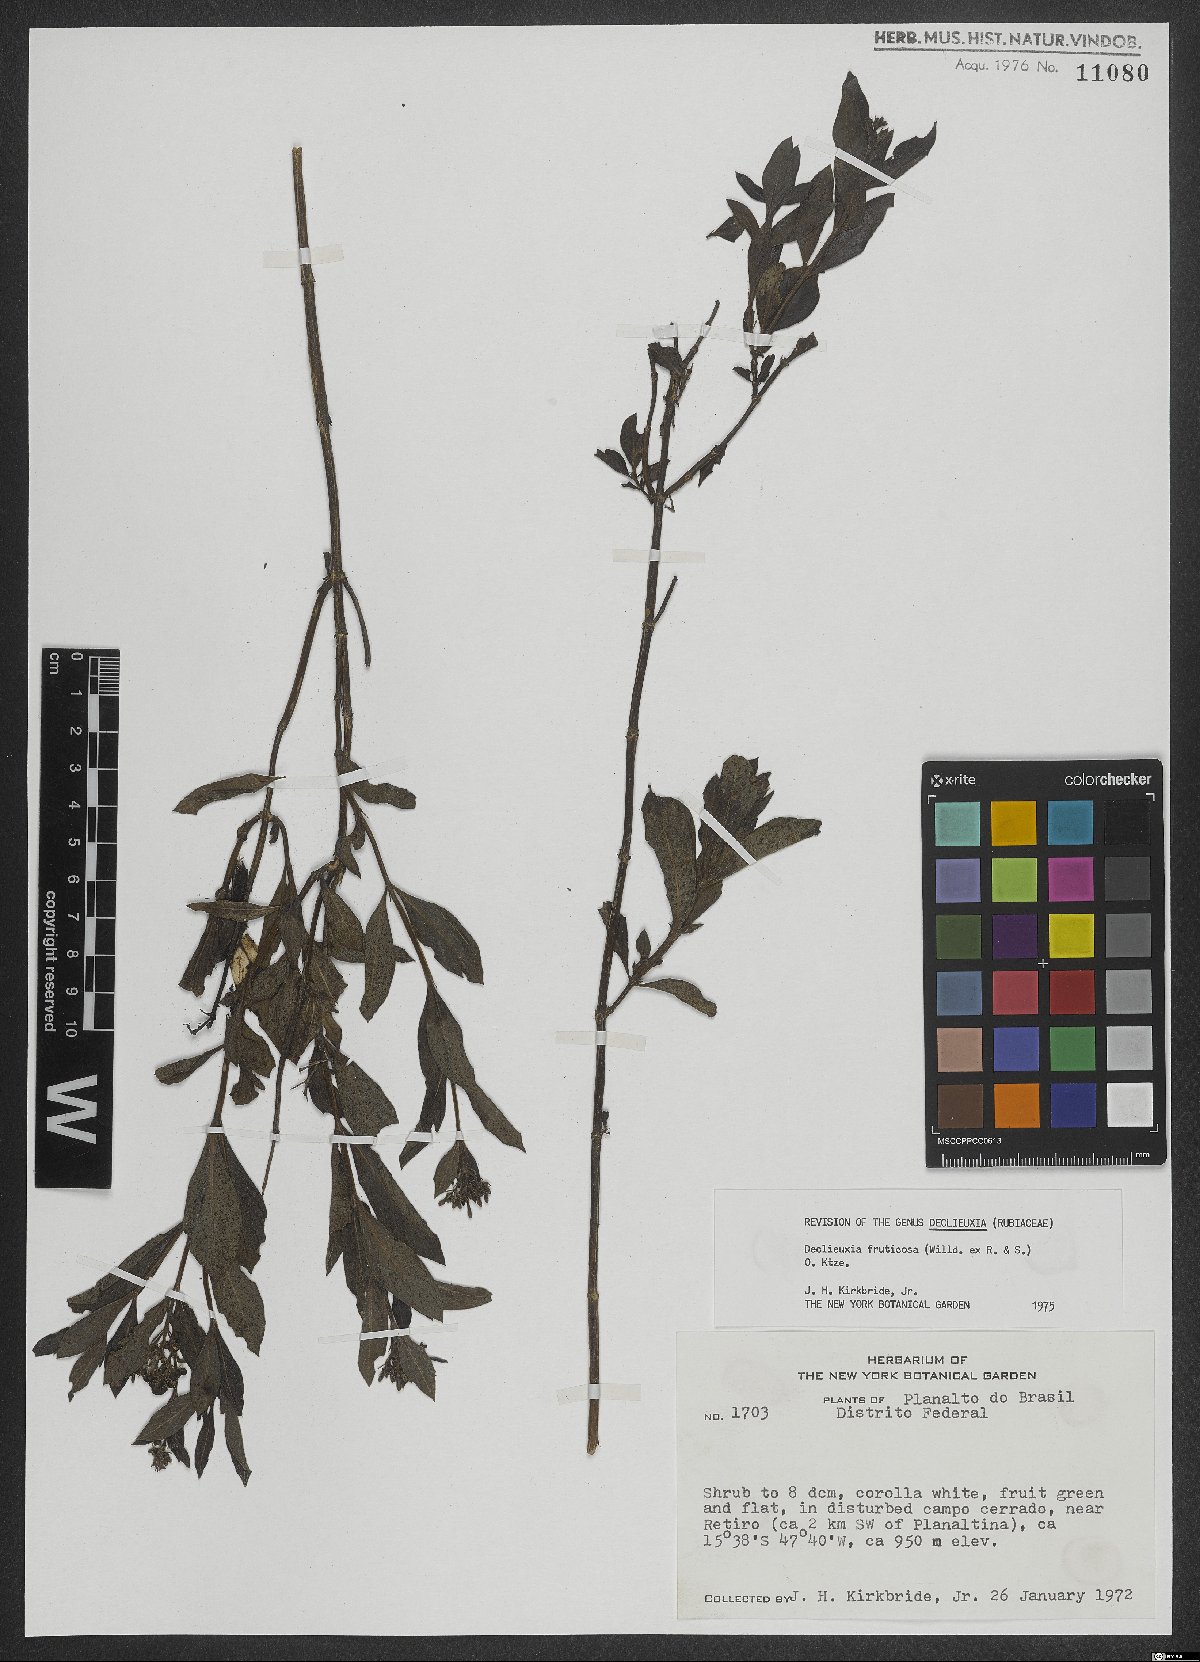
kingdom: Plantae
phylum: Tracheophyta
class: Magnoliopsida
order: Gentianales
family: Rubiaceae
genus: Declieuxia
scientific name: Declieuxia fruticosa
